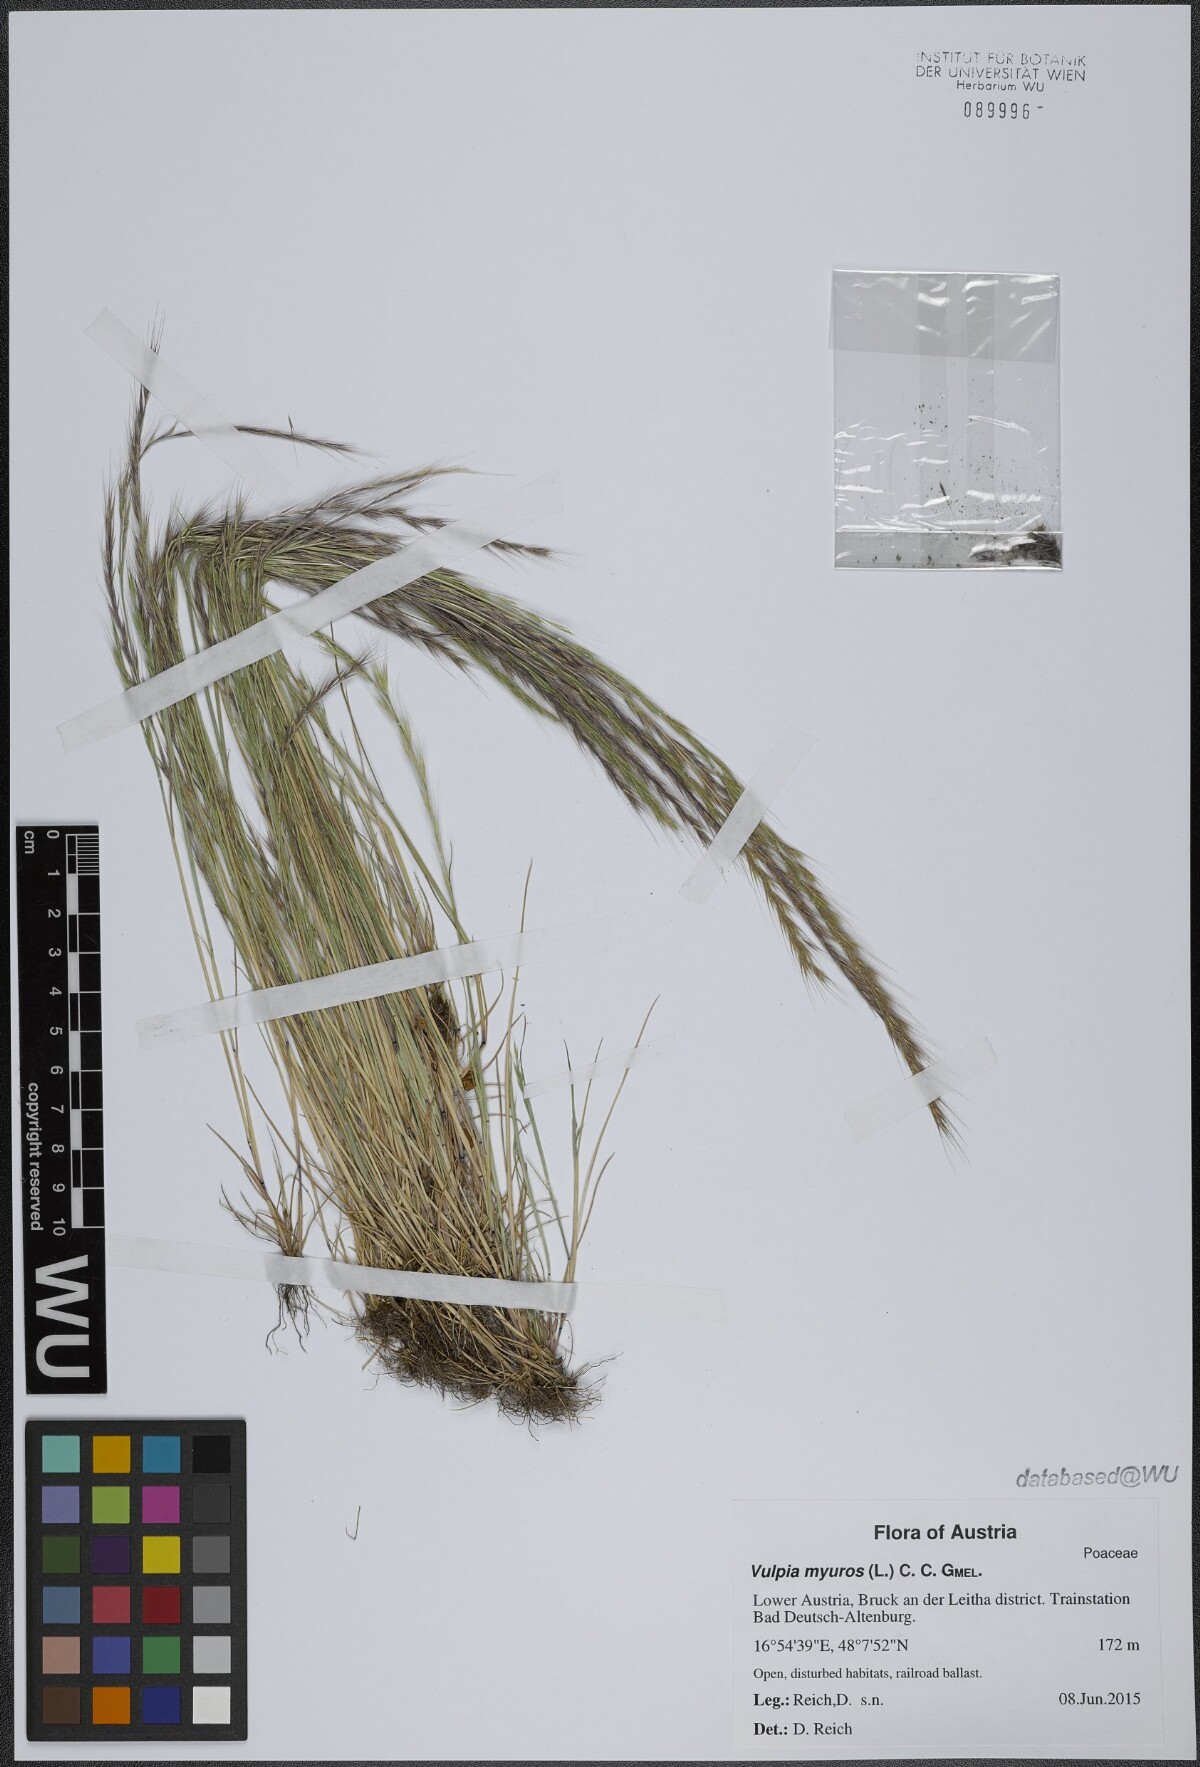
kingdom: Plantae
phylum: Tracheophyta
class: Liliopsida
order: Poales
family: Poaceae
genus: Festuca
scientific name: Festuca myuros
